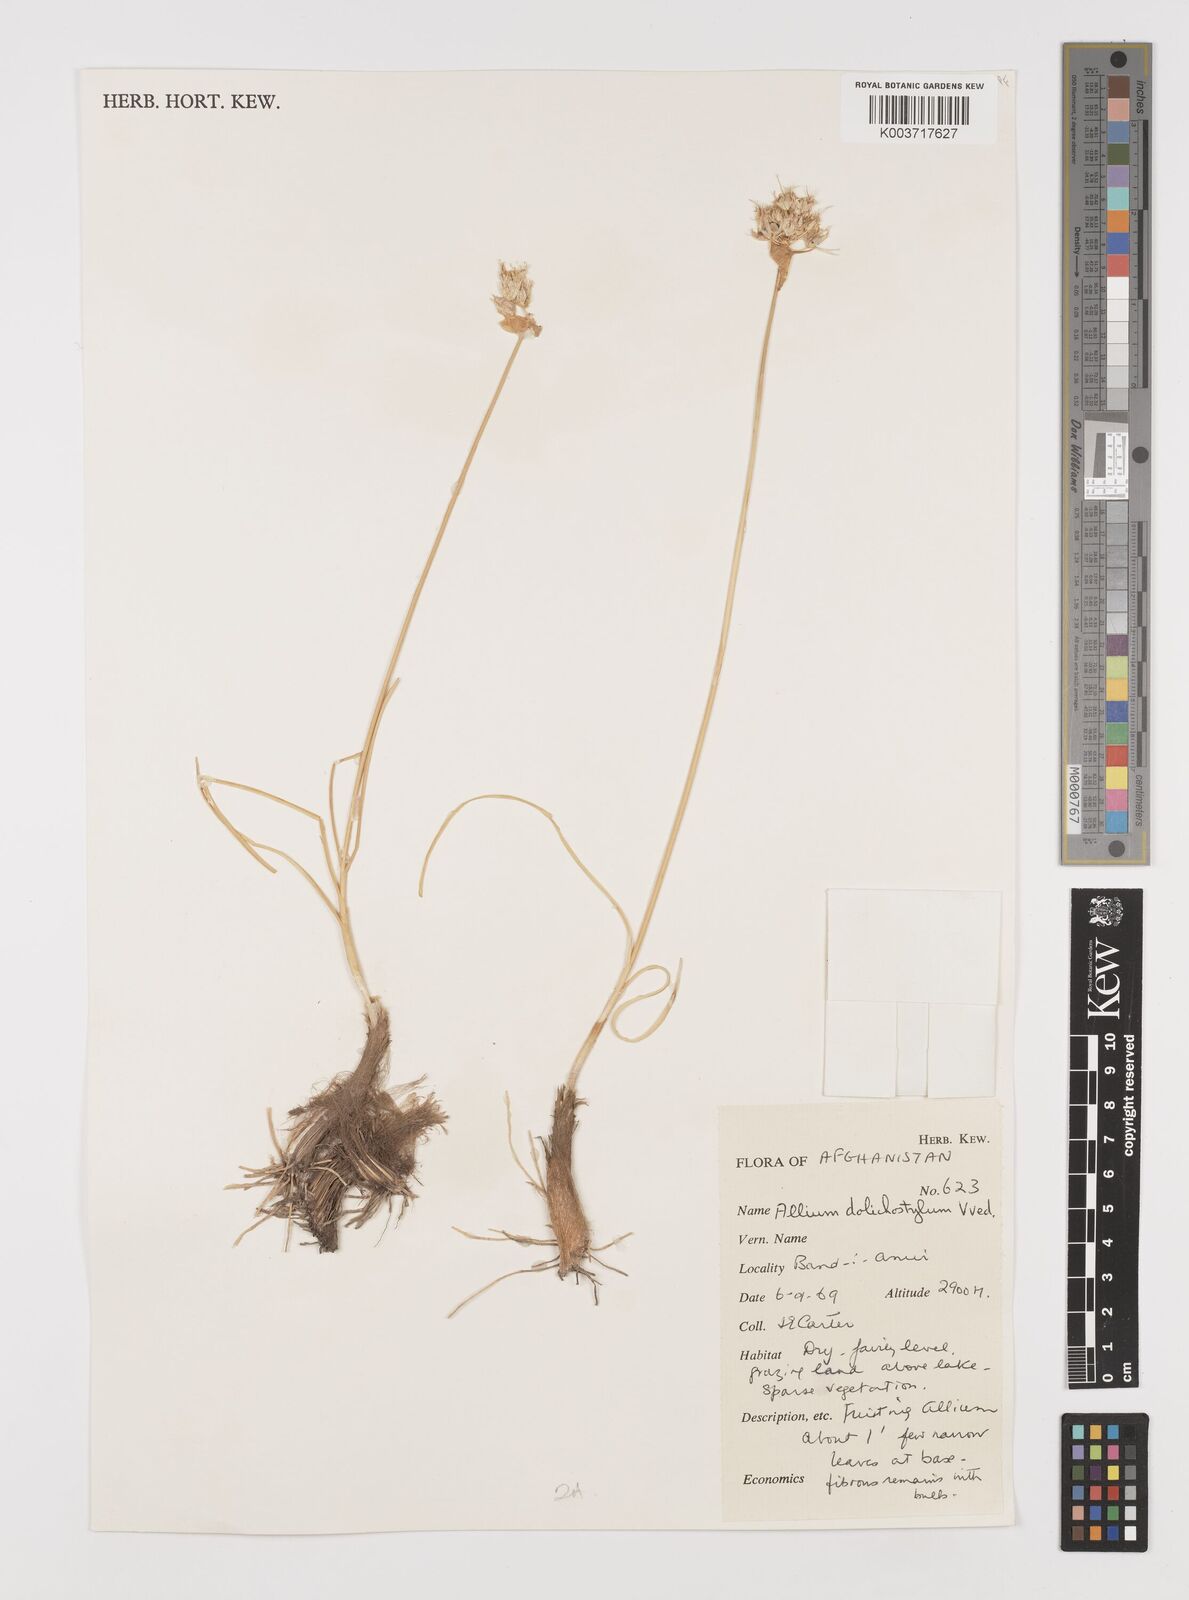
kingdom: Plantae
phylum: Tracheophyta
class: Liliopsida
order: Asparagales
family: Amaryllidaceae
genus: Allium
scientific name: Allium dolichostylum
